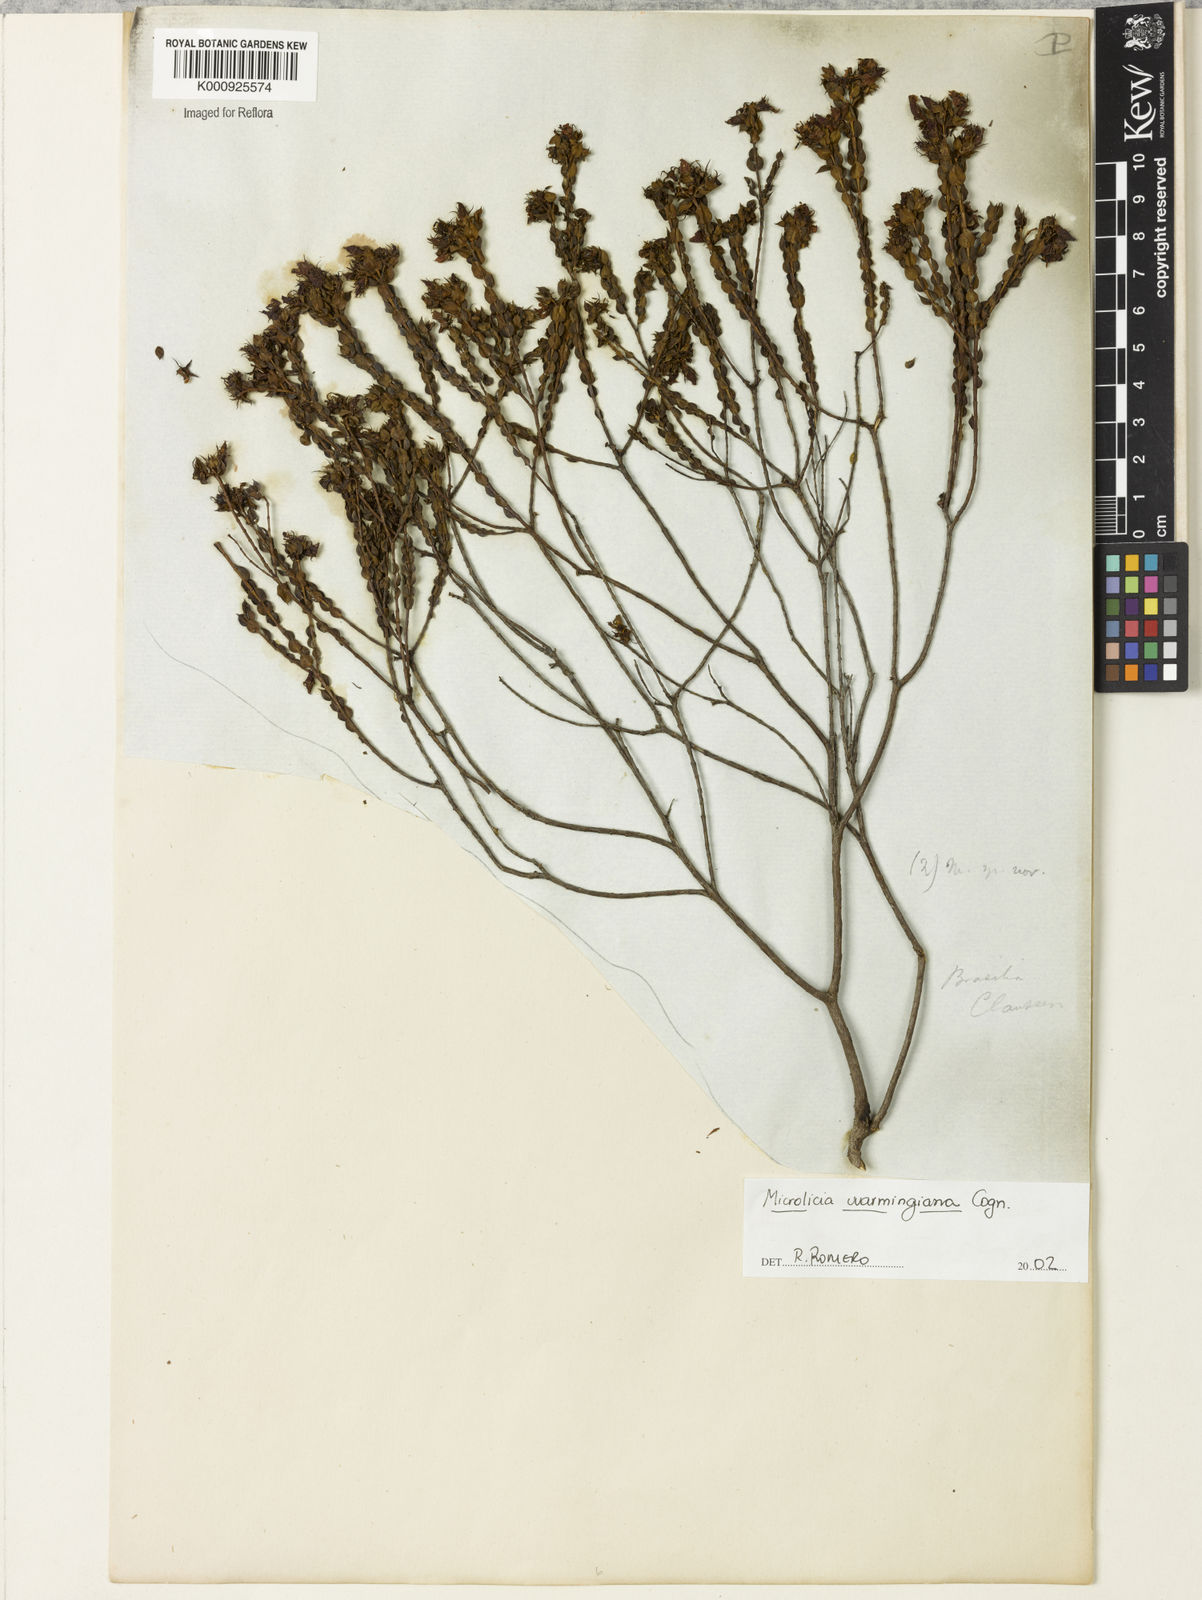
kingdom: Plantae
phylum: Tracheophyta
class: Magnoliopsida
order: Myrtales
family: Melastomataceae
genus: Microlicia
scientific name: Microlicia warmingiana
